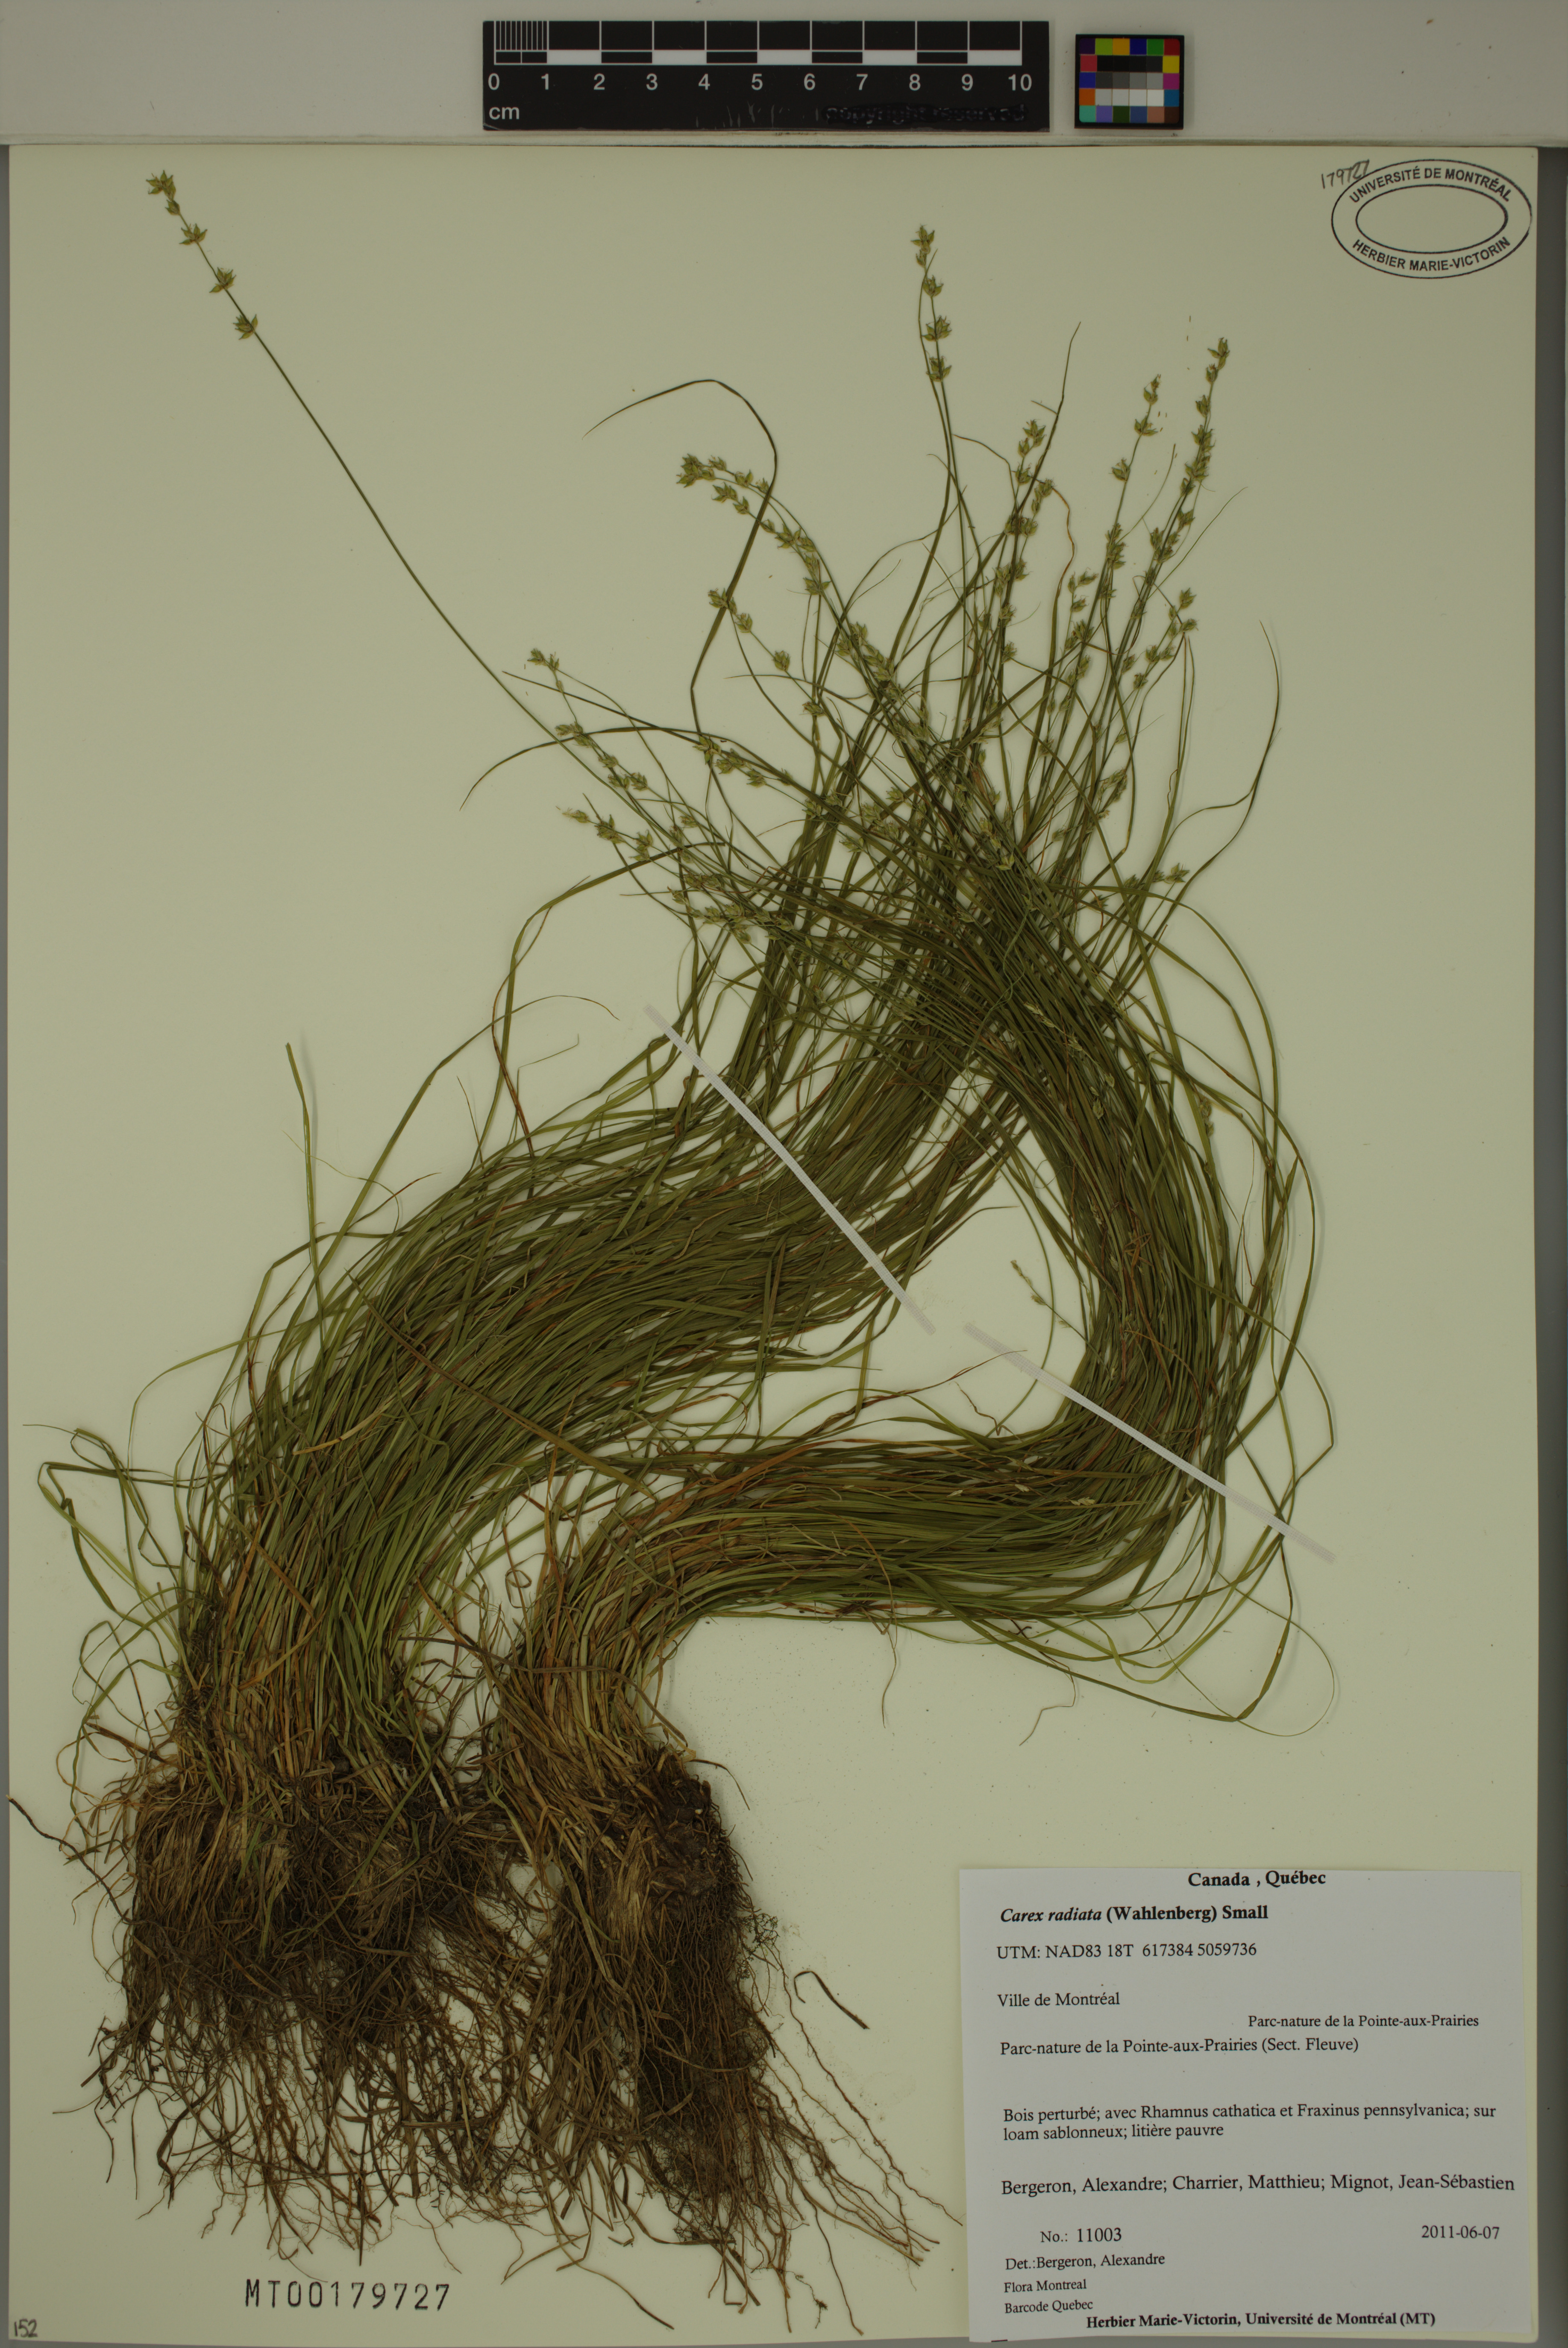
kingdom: Plantae
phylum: Tracheophyta
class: Liliopsida
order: Poales
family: Cyperaceae
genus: Carex
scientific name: Carex radiata
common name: Eastern star sedge
